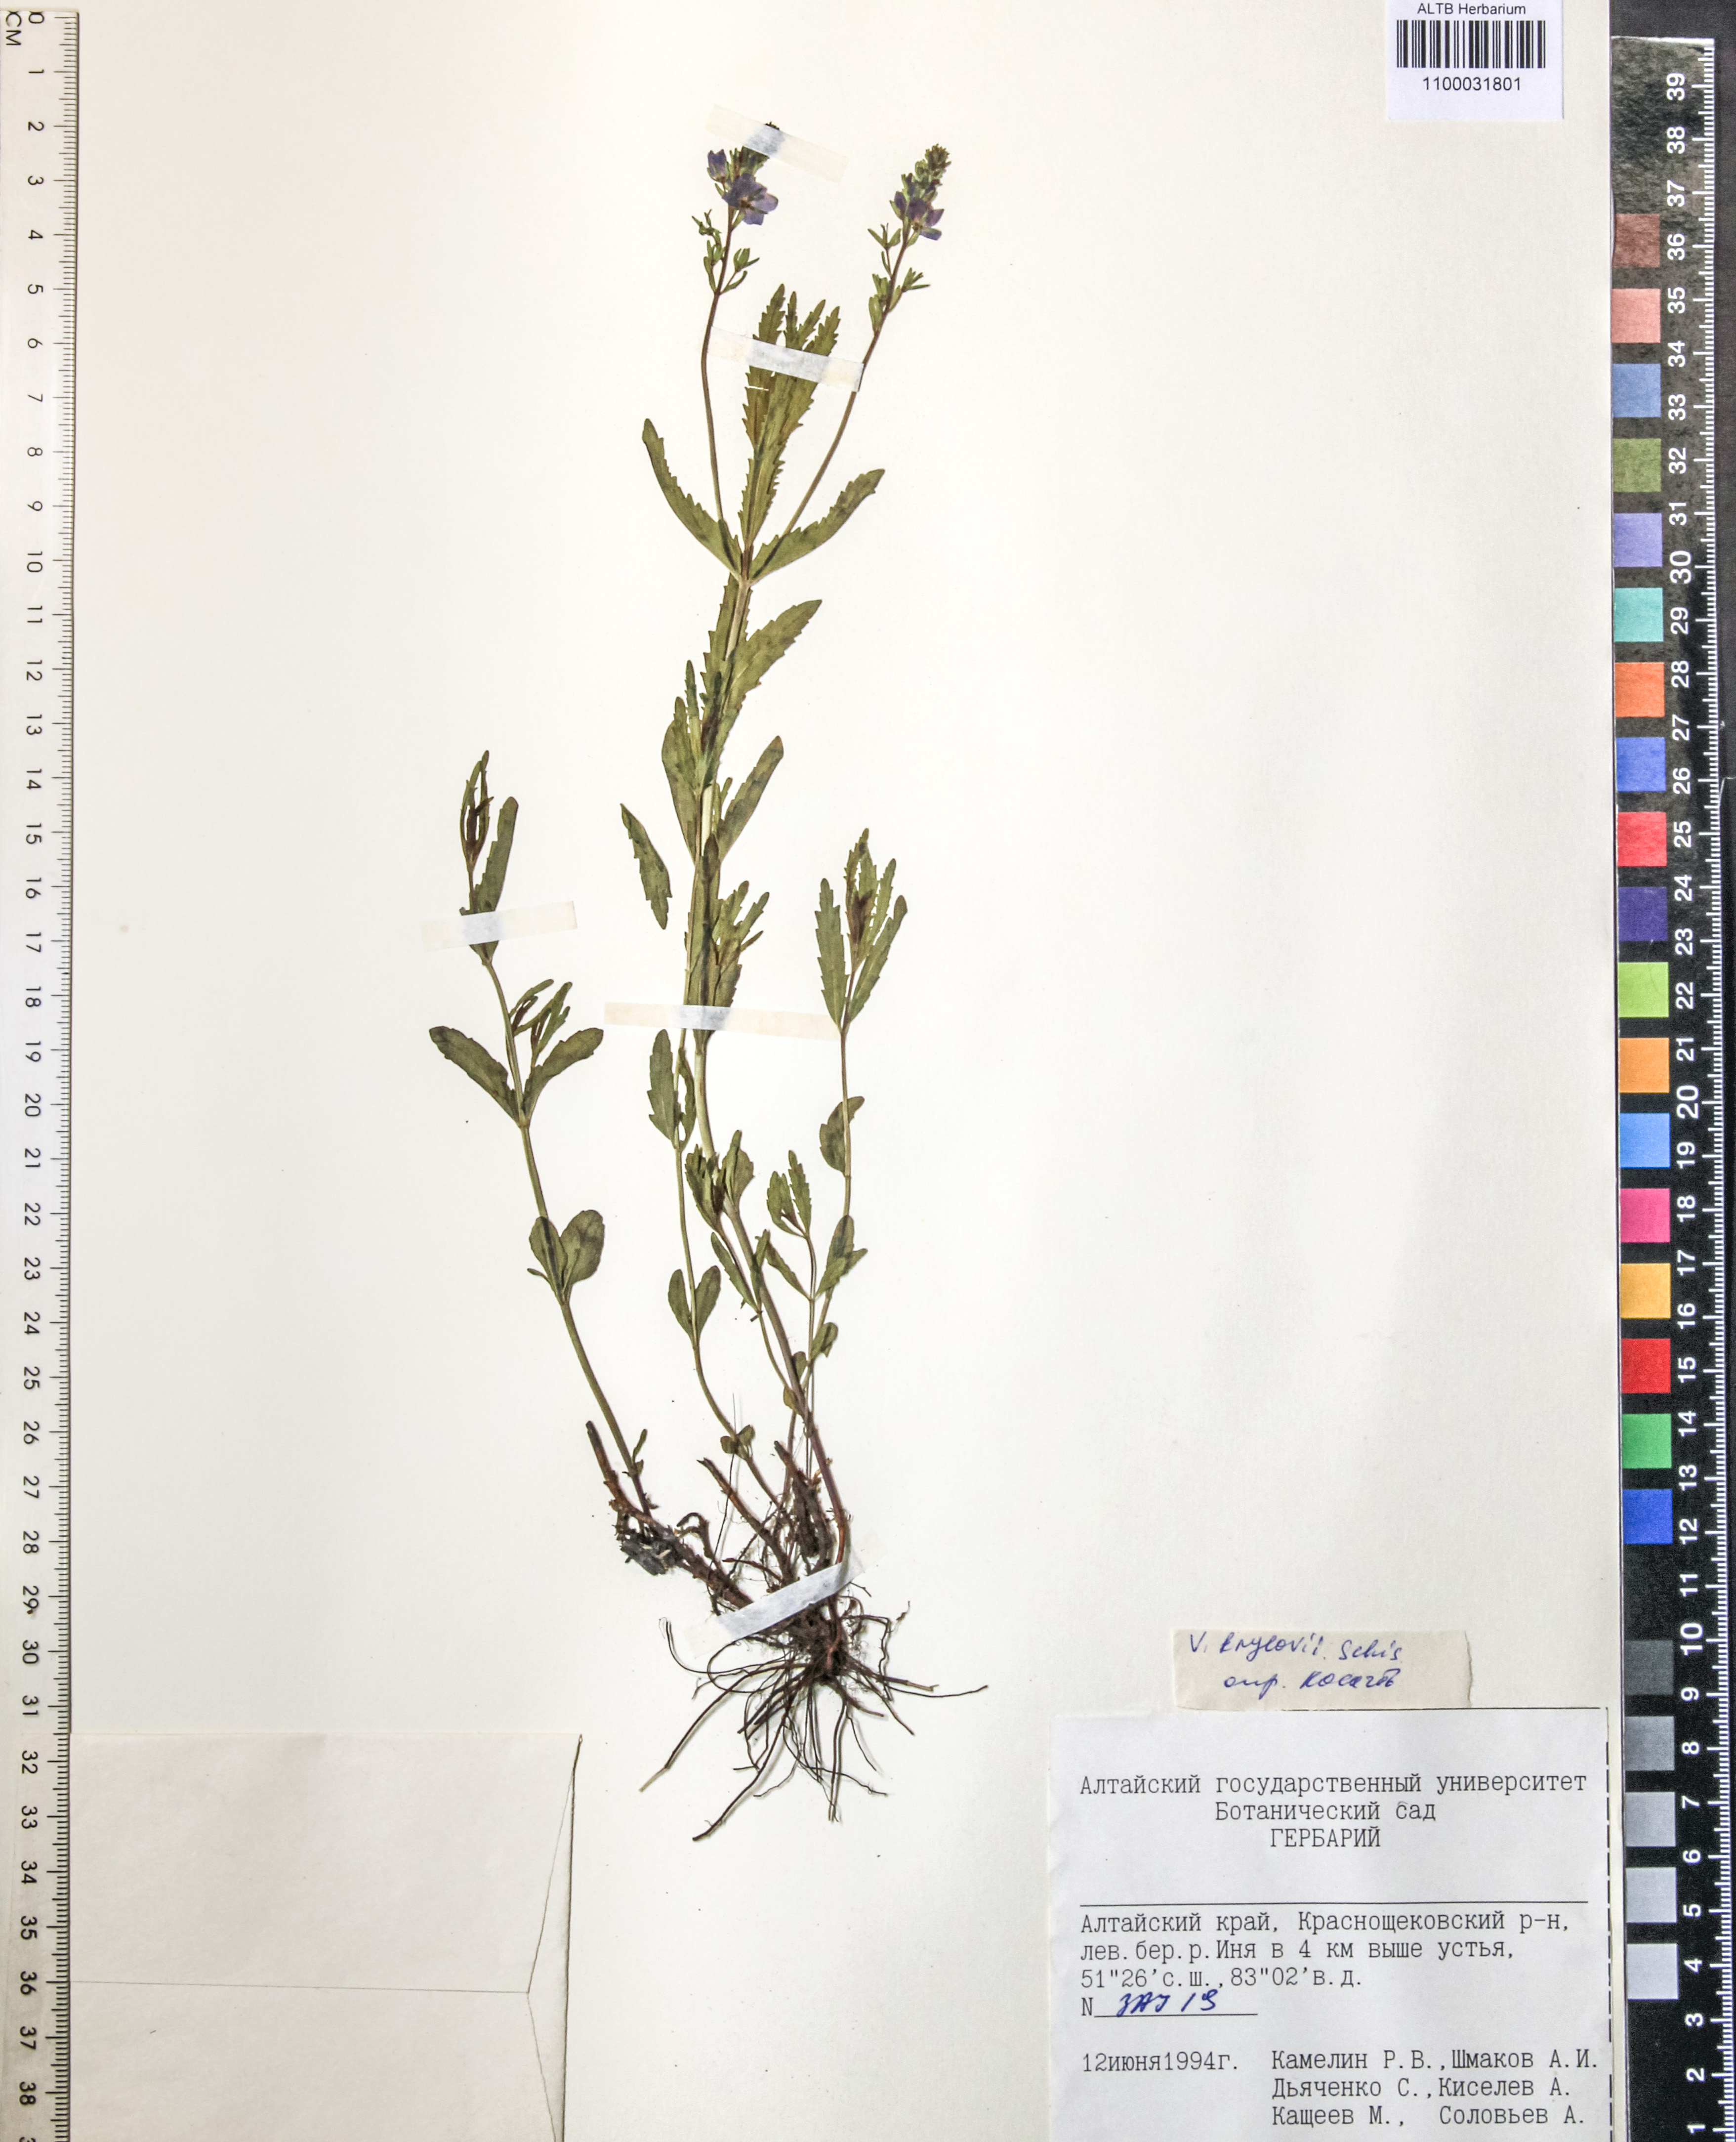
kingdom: Plantae
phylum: Tracheophyta
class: Magnoliopsida
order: Lamiales
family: Plantaginaceae
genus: Veronica
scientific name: Veronica krylovii
